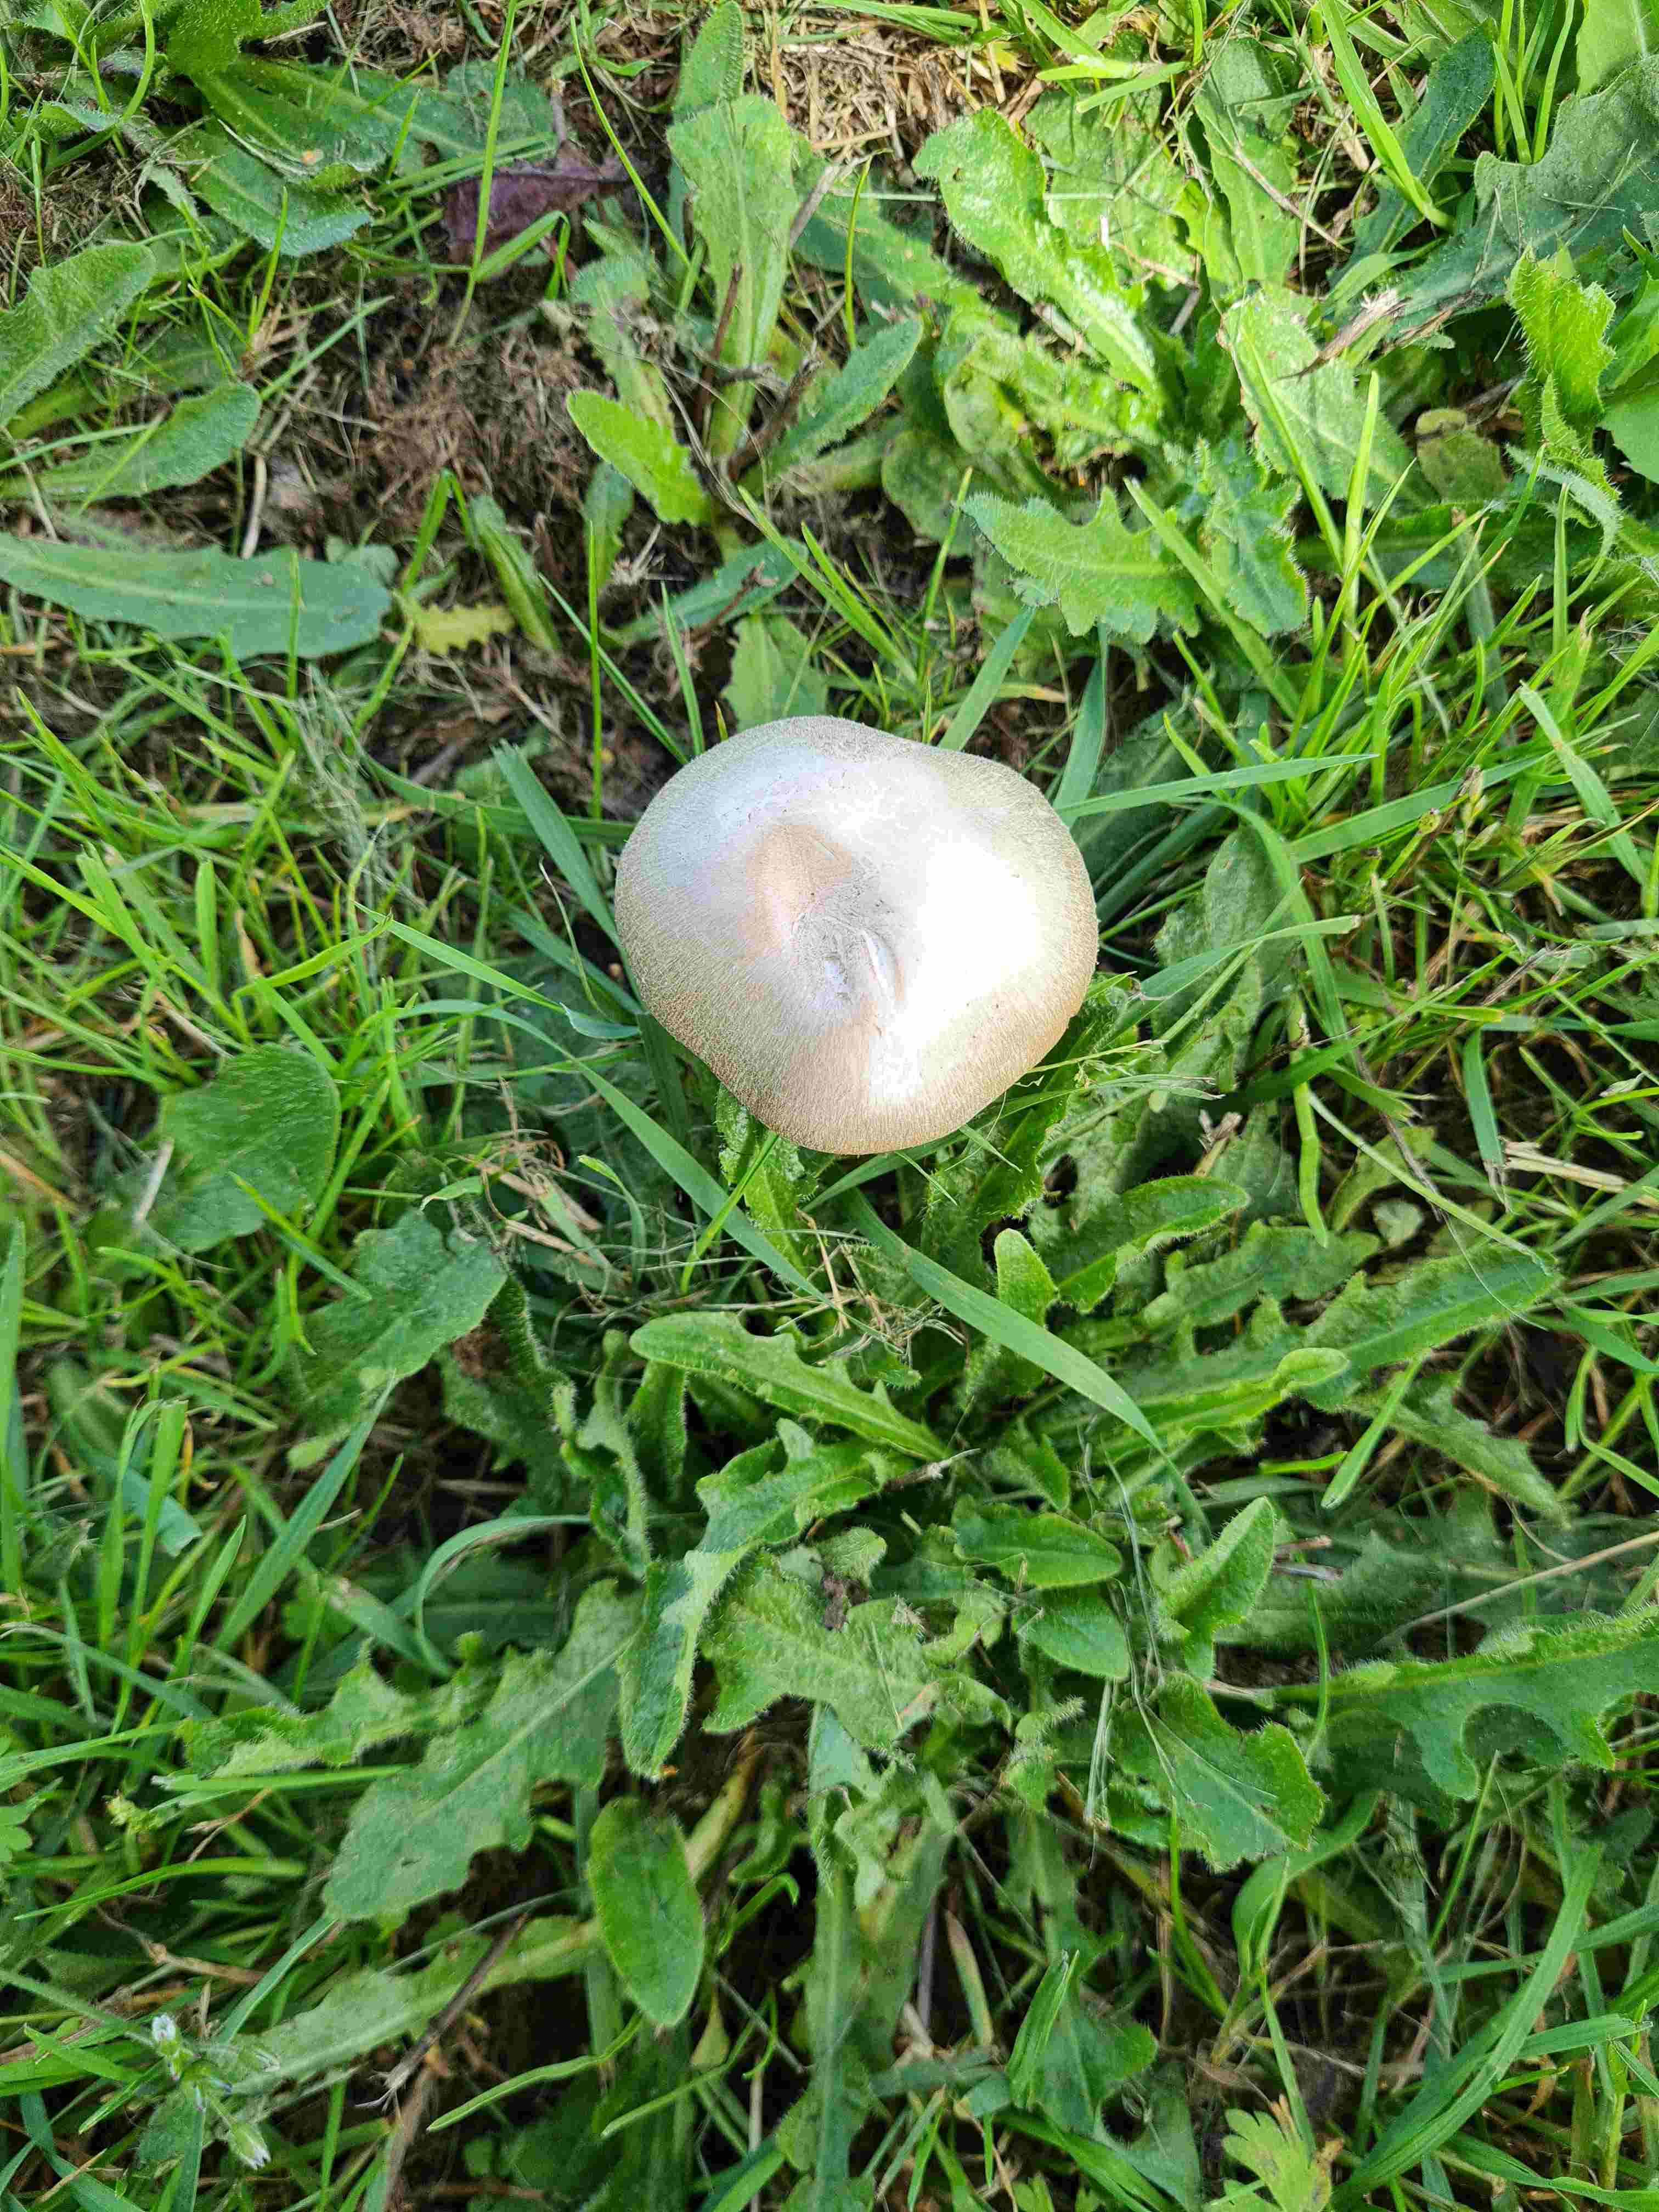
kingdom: Fungi
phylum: Basidiomycota
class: Agaricomycetes
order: Agaricales
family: Agaricaceae
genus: Agaricus
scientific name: Agaricus
